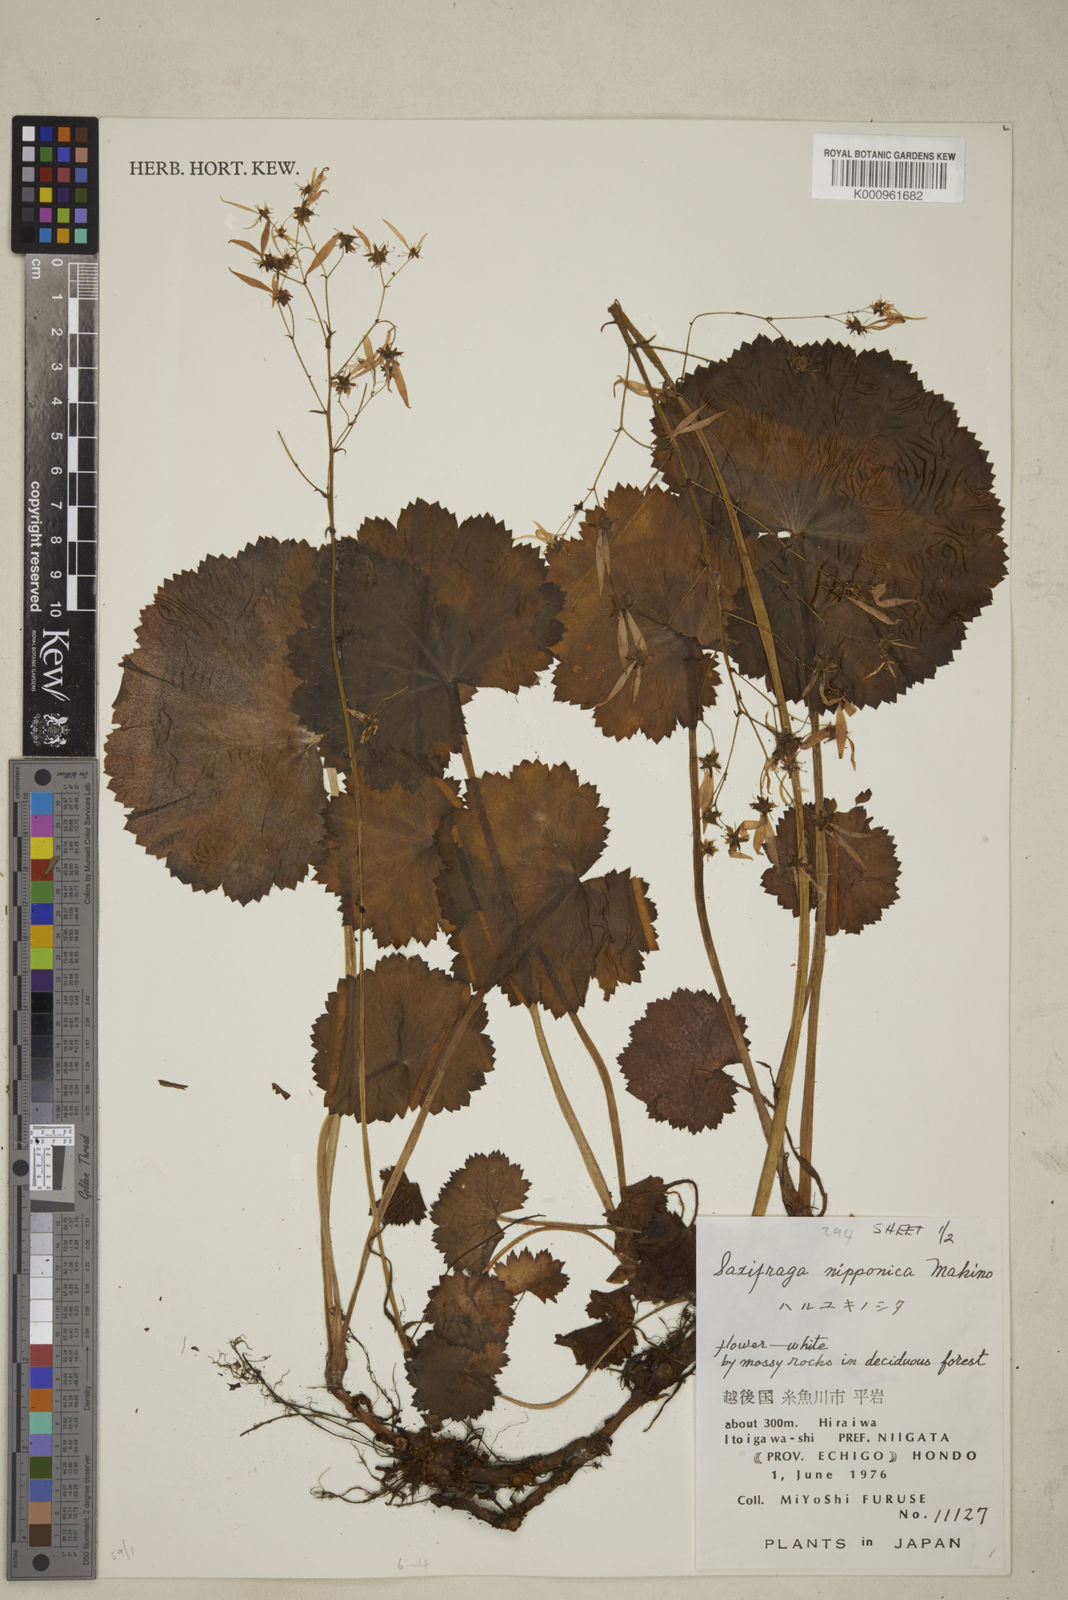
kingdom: Plantae
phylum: Tracheophyta
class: Magnoliopsida
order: Saxifragales
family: Saxifragaceae
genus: Saxifraga
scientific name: Saxifraga nipponica
